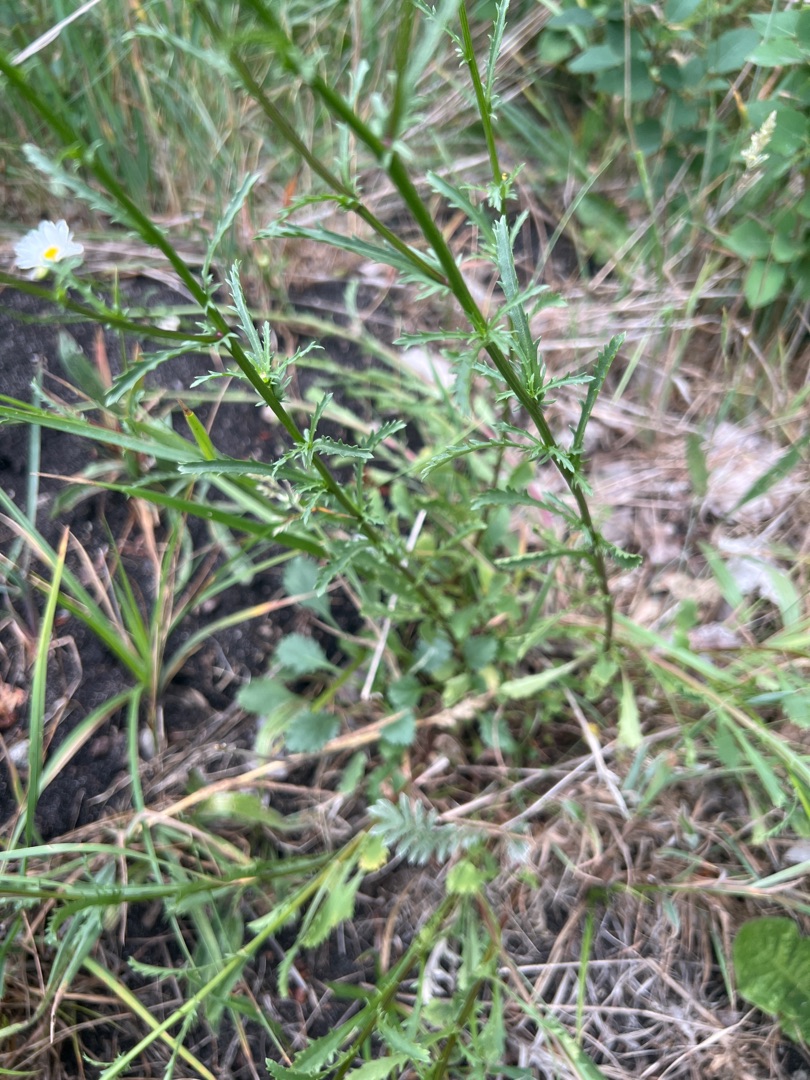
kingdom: Plantae
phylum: Tracheophyta
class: Magnoliopsida
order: Asterales
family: Asteraceae
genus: Leucanthemum
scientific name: Leucanthemum vulgare
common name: Hvid okseøje
